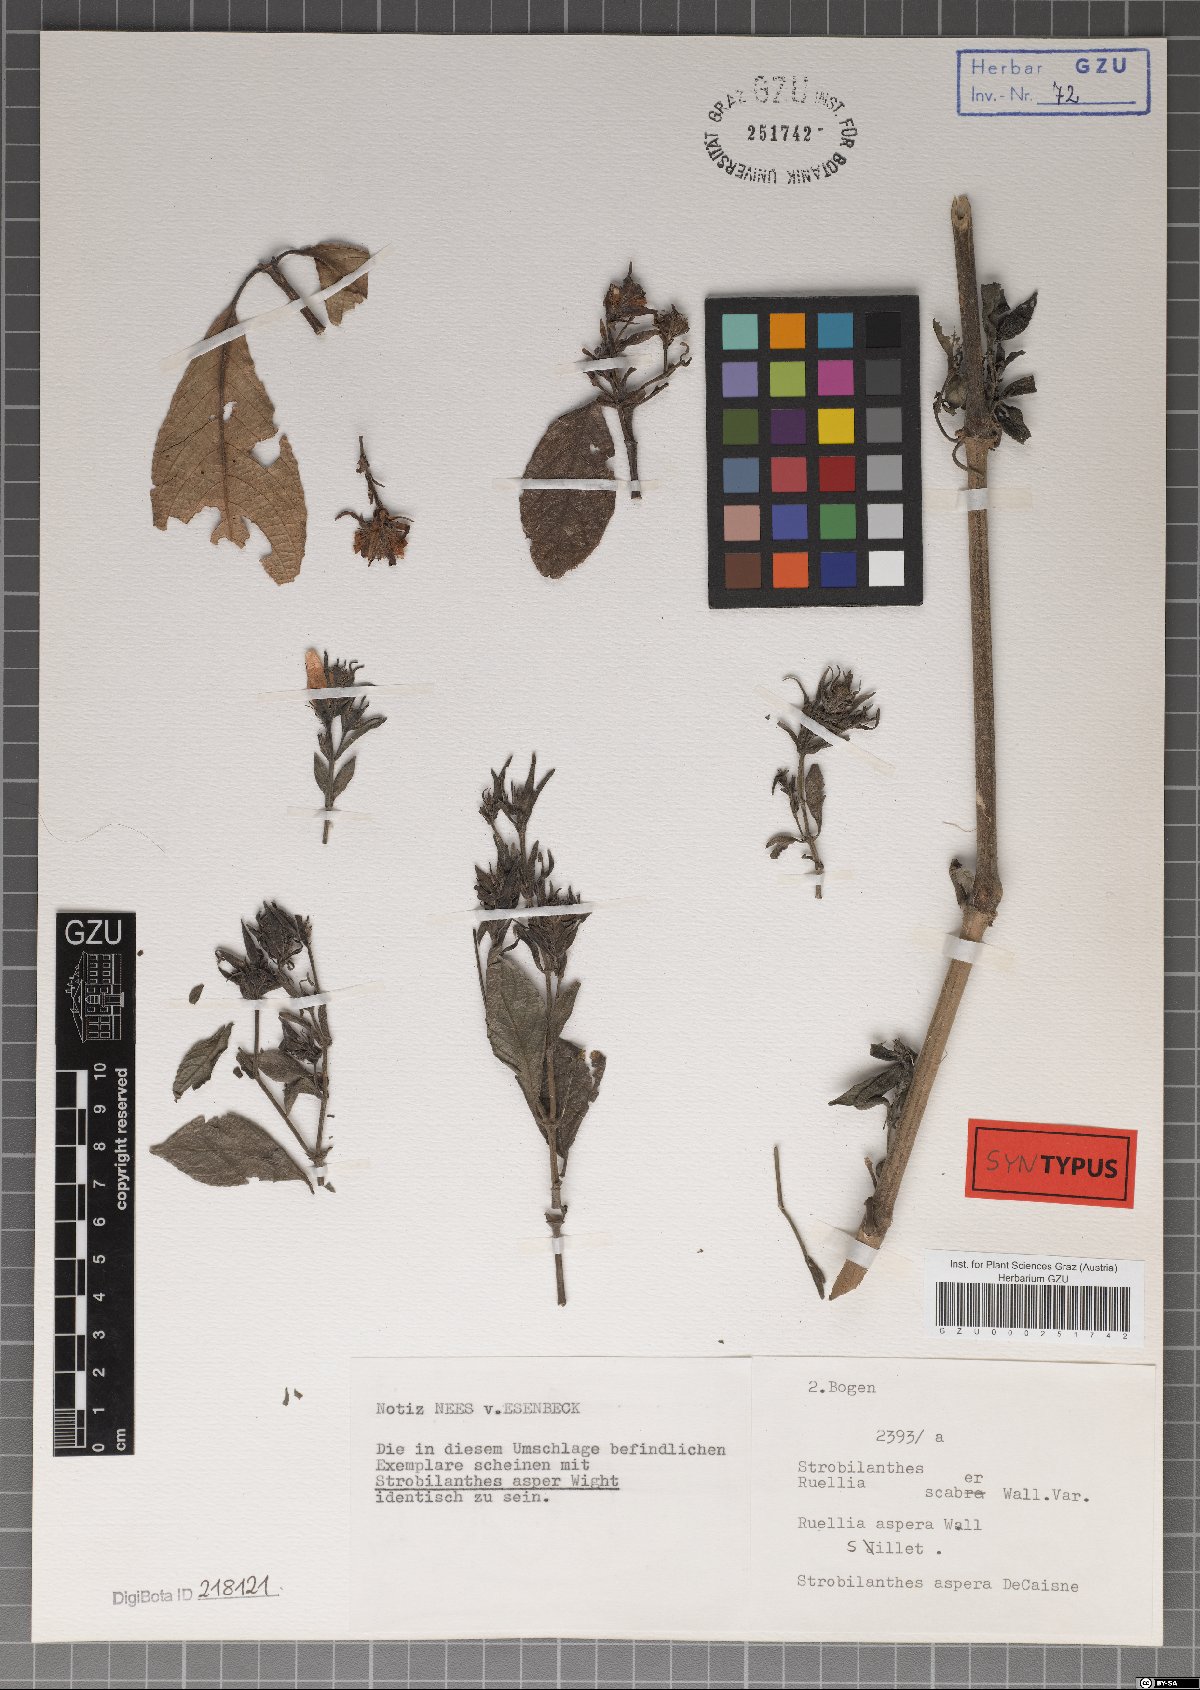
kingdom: Plantae
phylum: Tracheophyta
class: Magnoliopsida
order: Lamiales
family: Acanthaceae
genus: Strobilanthes
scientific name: Strobilanthes scaber
